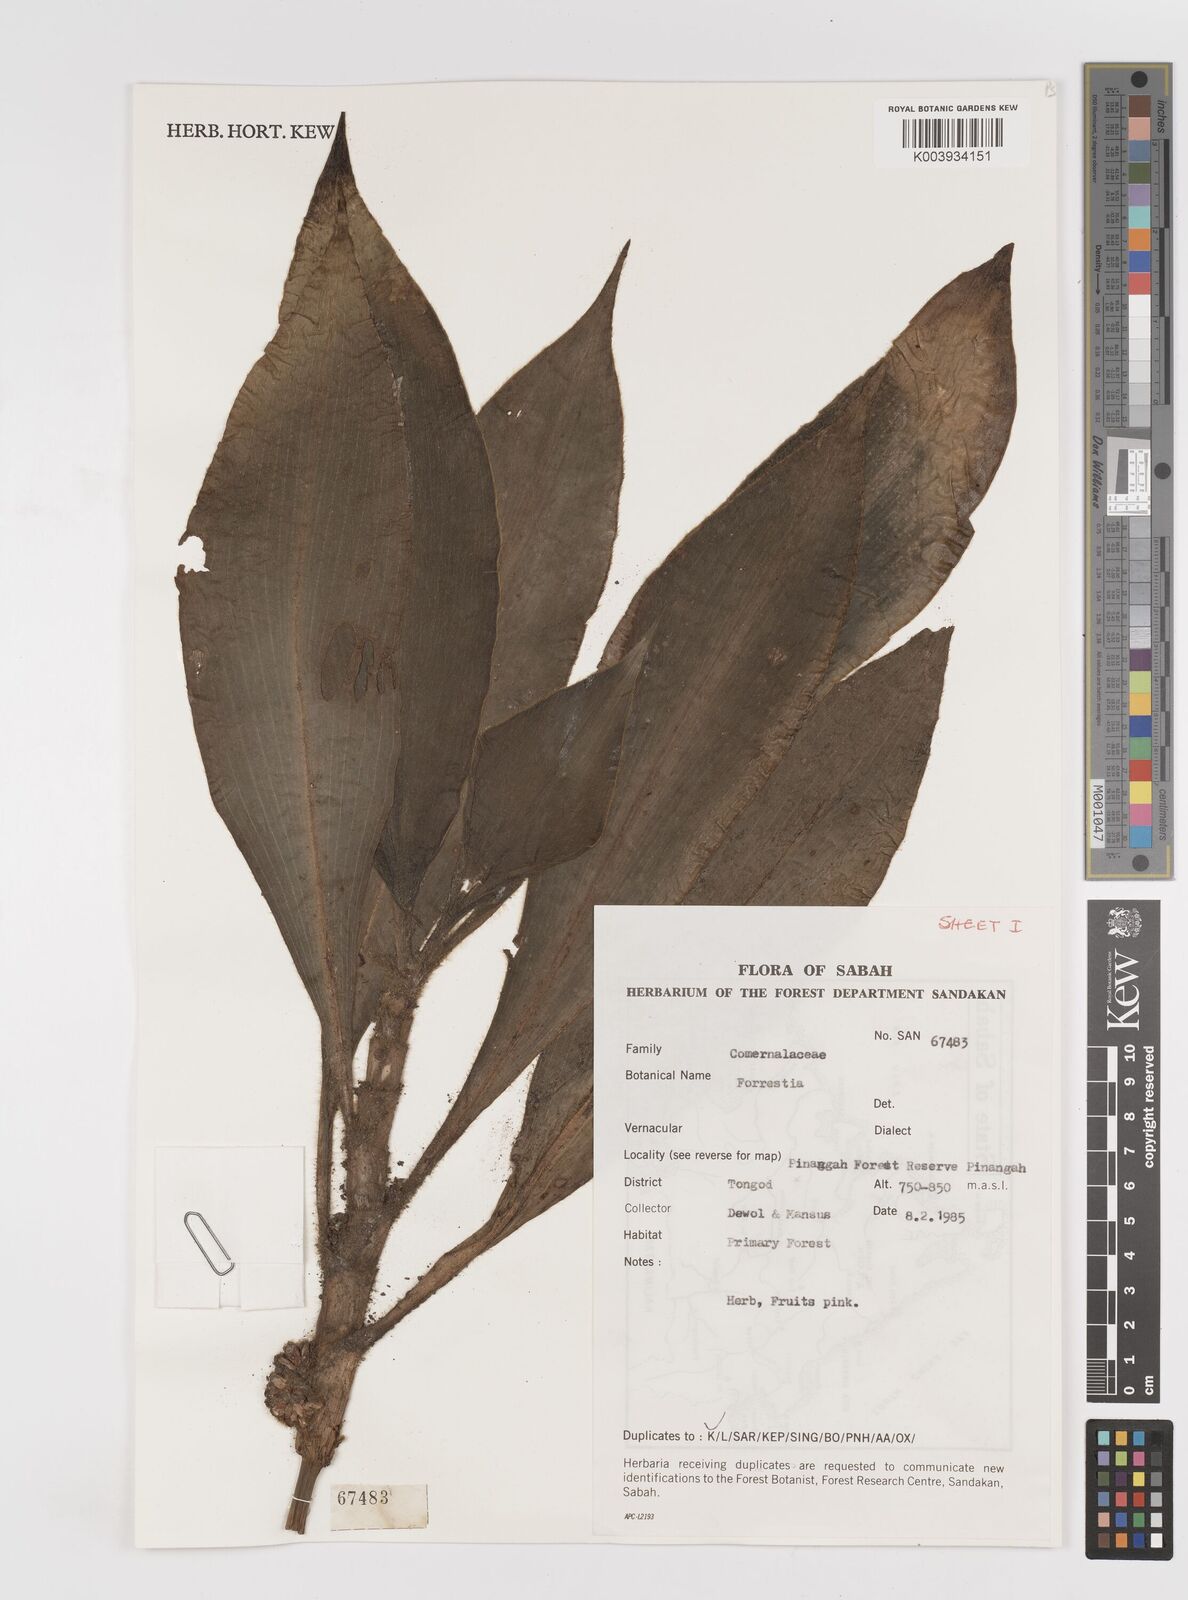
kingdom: Plantae
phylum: Tracheophyta
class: Liliopsida
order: Commelinales
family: Commelinaceae
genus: Amischotolype
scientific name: Amischotolype
